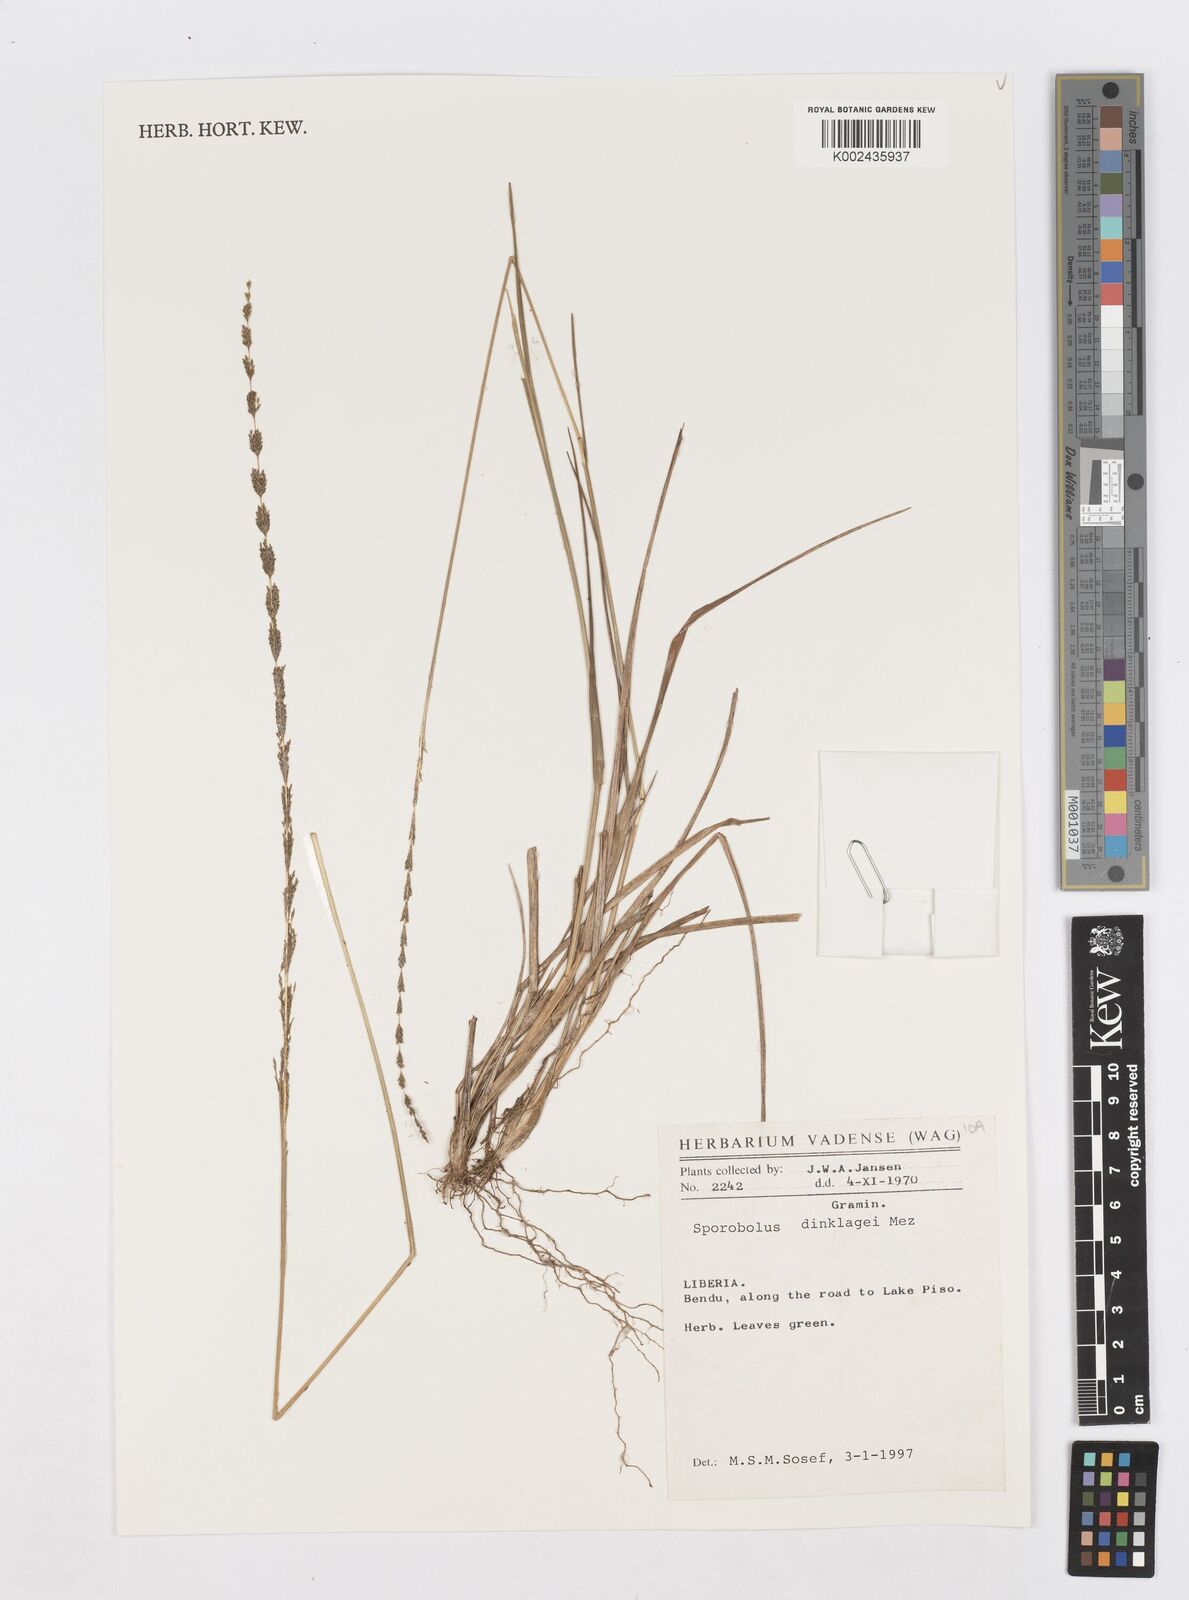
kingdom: Plantae
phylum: Tracheophyta
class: Liliopsida
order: Poales
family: Poaceae
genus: Sporobolus
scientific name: Sporobolus dinklagei
